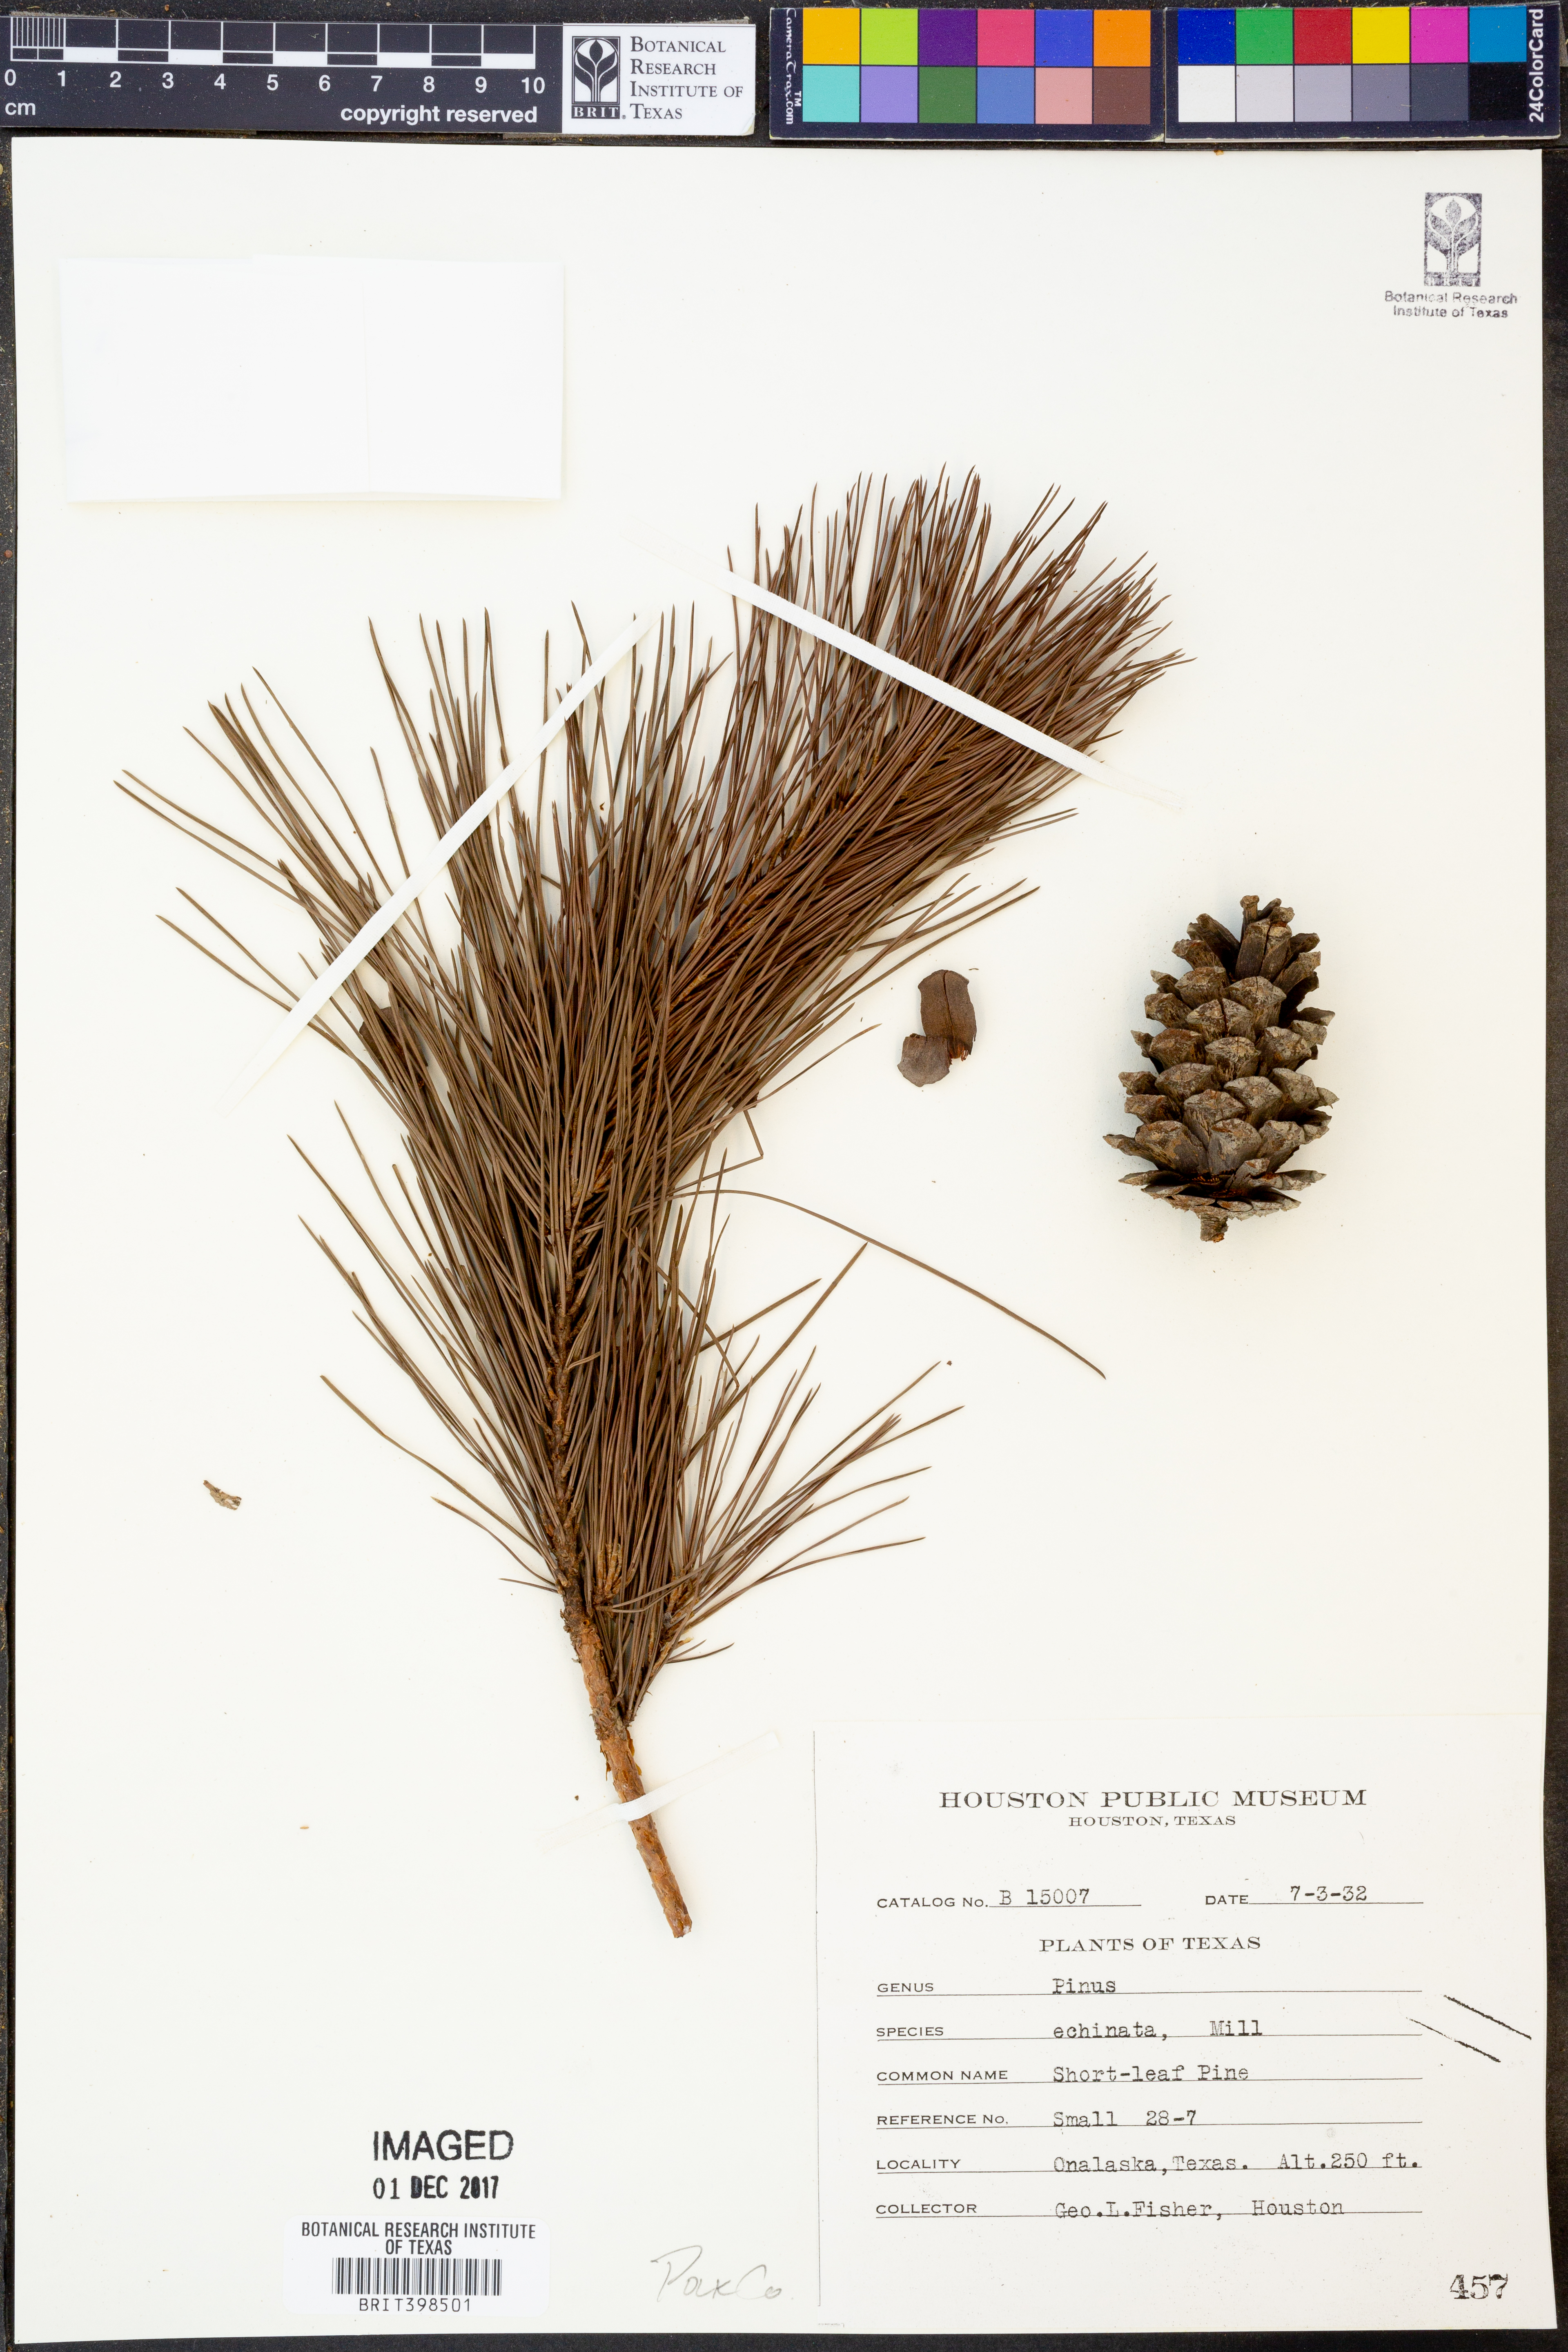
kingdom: Plantae
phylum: Tracheophyta
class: Pinopsida
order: Pinales
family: Pinaceae
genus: Pinus
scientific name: Pinus echinata
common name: Shortleaf pine
